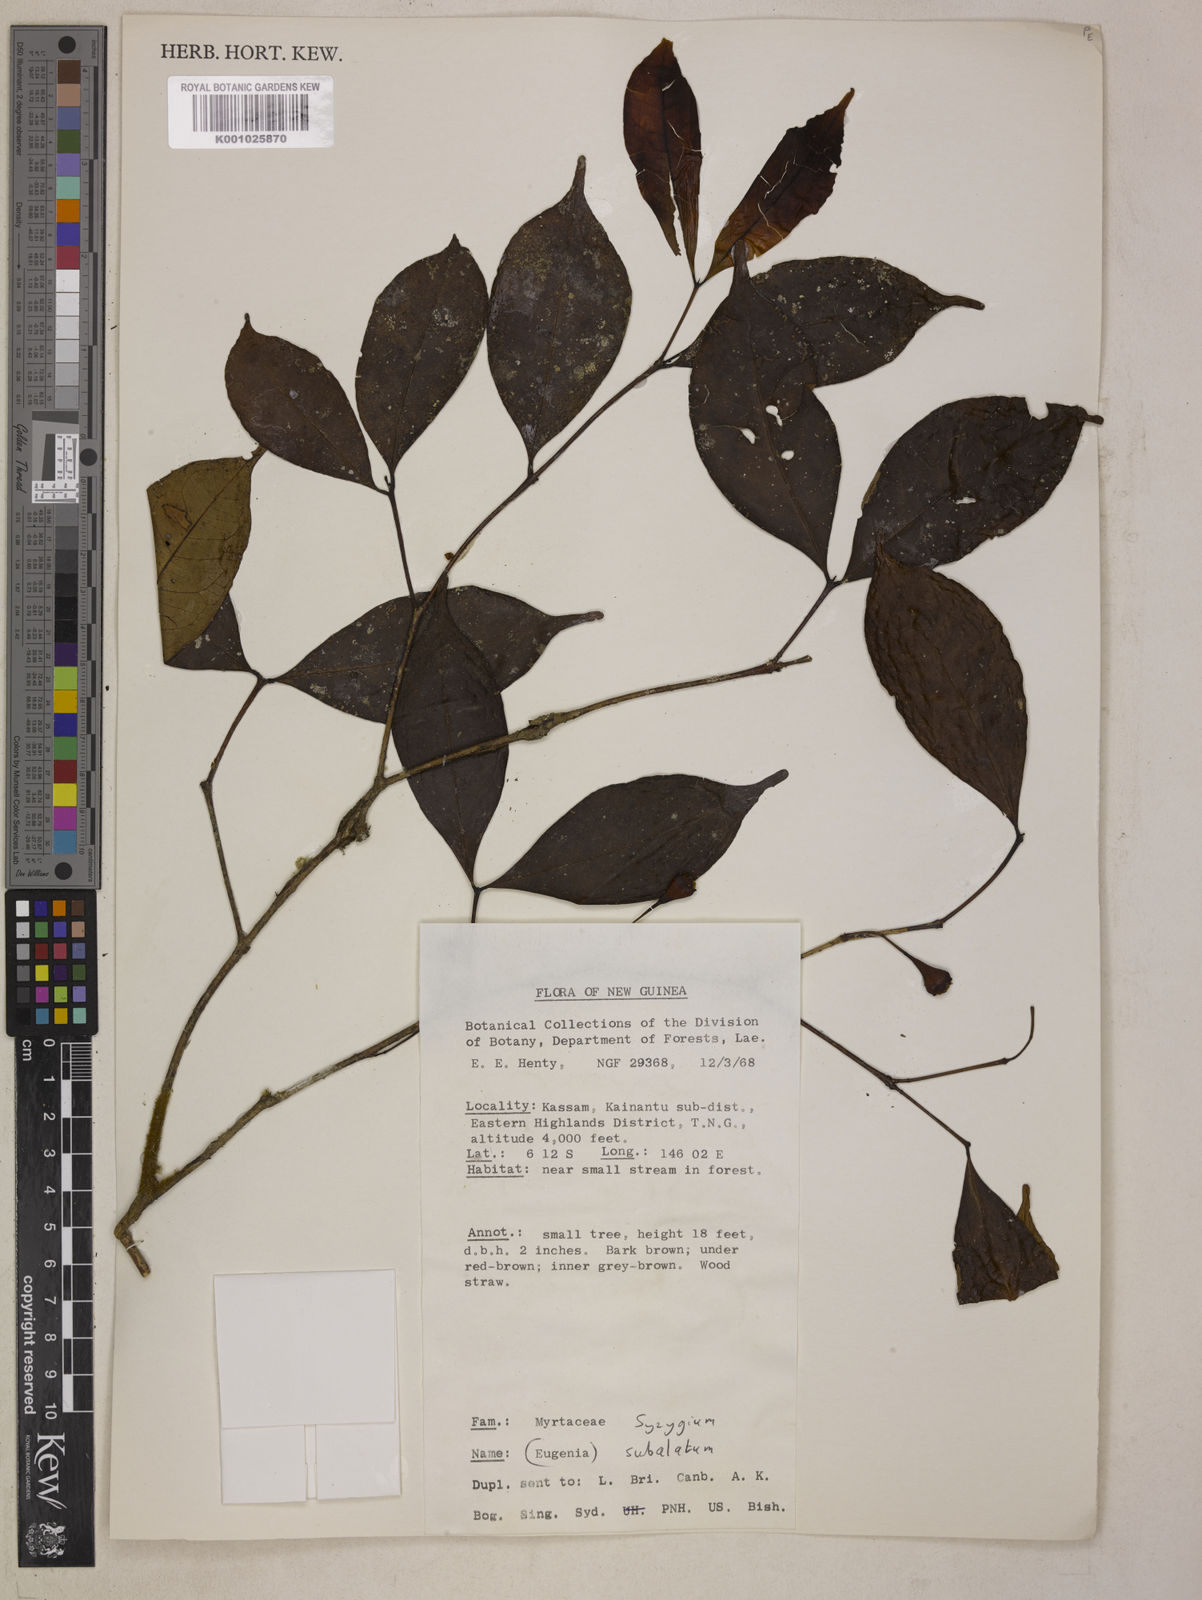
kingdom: Plantae
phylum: Tracheophyta
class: Magnoliopsida
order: Myrtales
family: Myrtaceae
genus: Syzygium
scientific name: Syzygium subalatum
